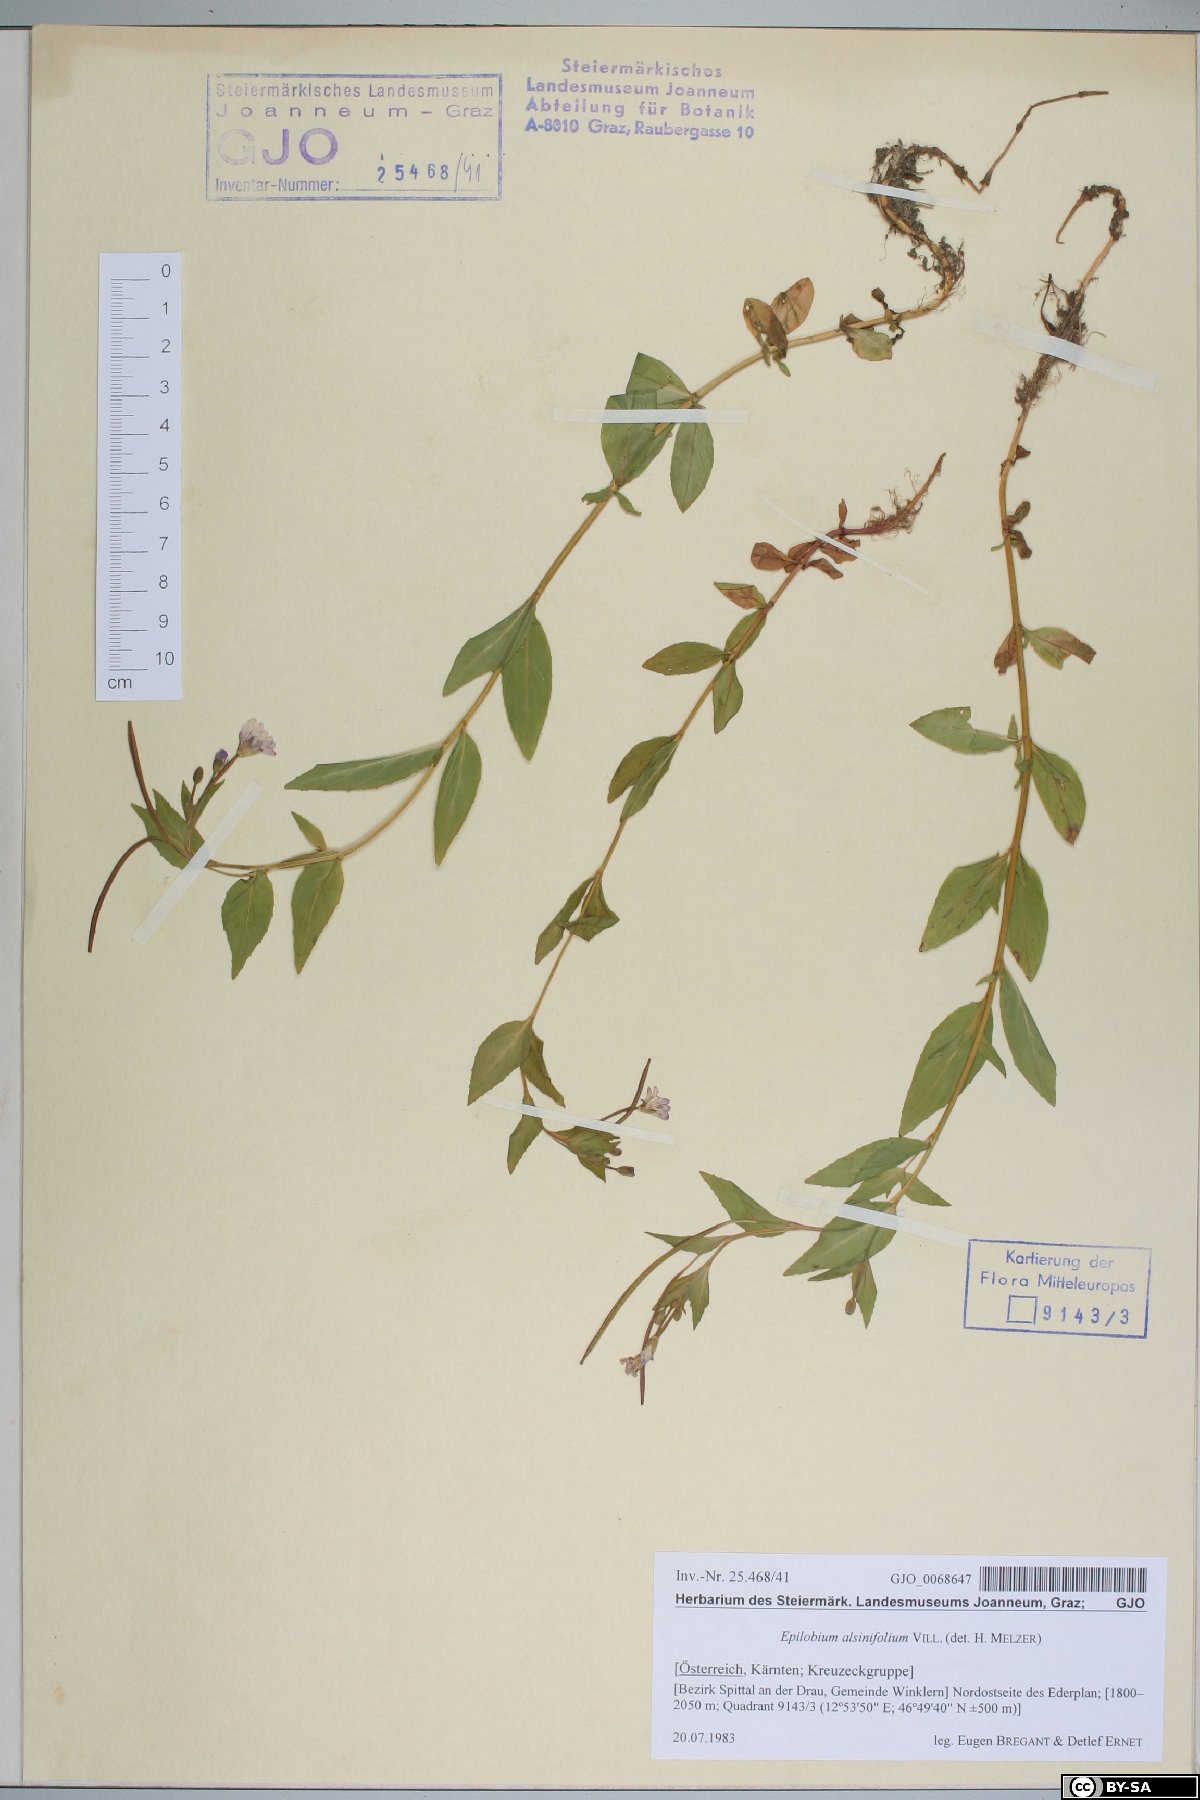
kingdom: Plantae
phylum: Tracheophyta
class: Magnoliopsida
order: Myrtales
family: Onagraceae
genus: Epilobium
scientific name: Epilobium alsinifolium
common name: Chickweed willowherb
